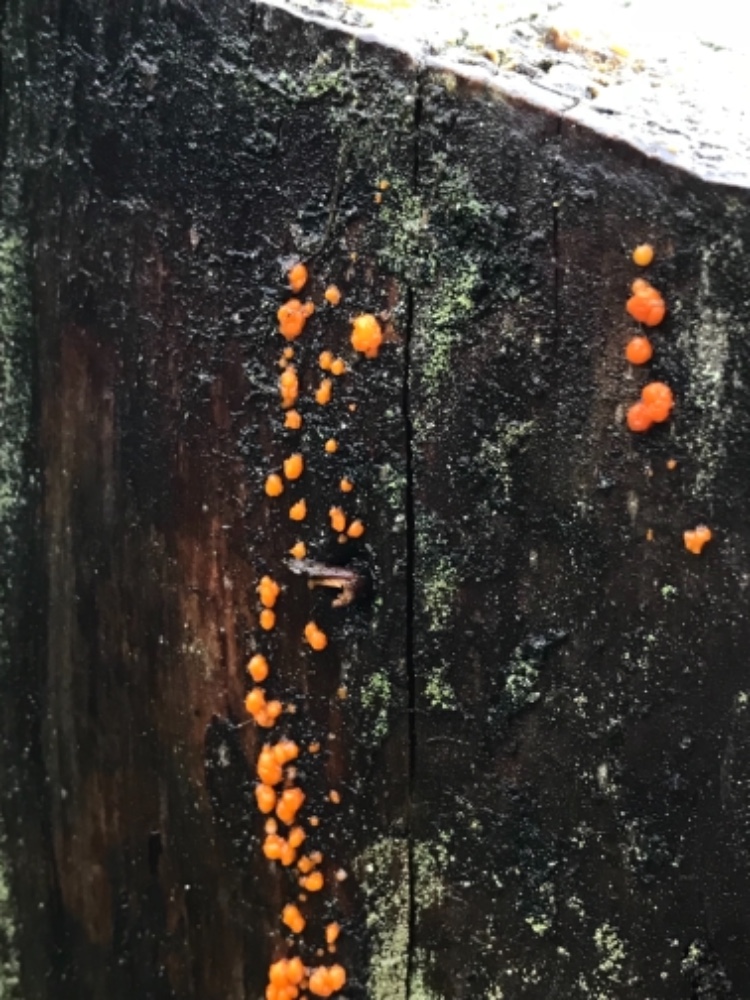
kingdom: Fungi
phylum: Basidiomycota
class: Dacrymycetes
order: Dacrymycetales
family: Dacrymycetaceae
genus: Dacrymyces
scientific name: Dacrymyces stillatus
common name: almindelig tåresvamp
